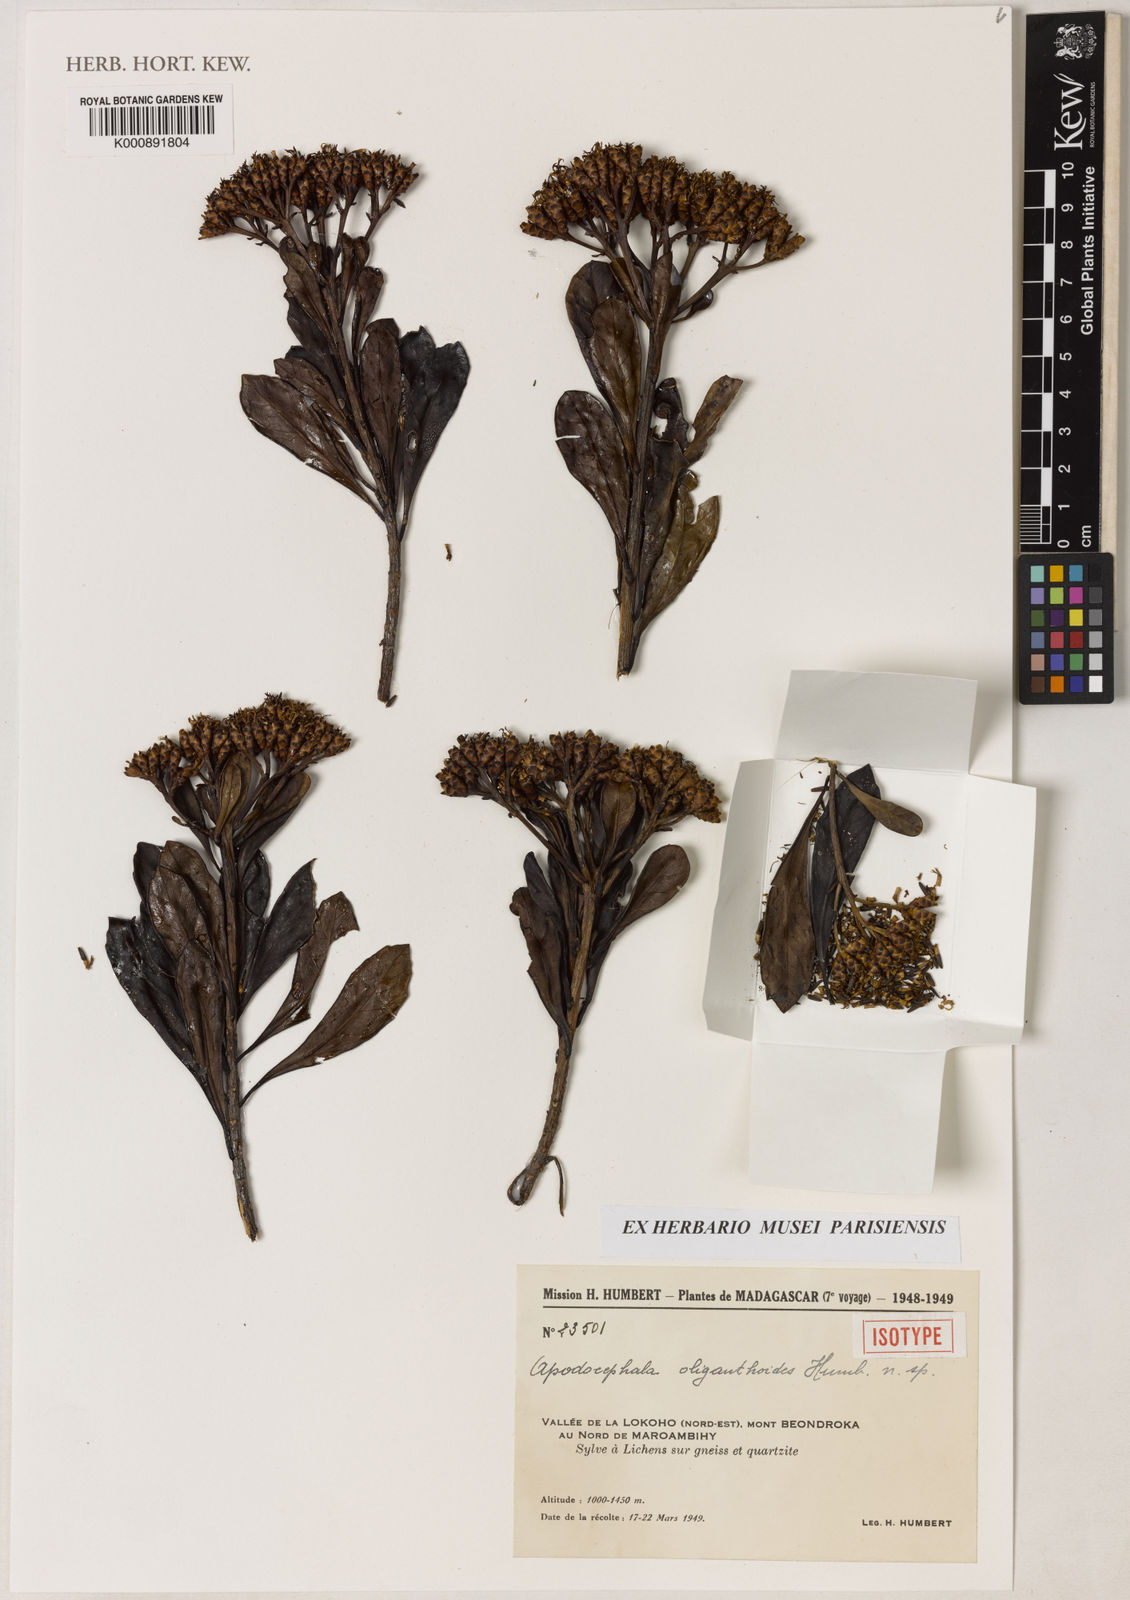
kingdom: Plantae
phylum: Tracheophyta
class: Magnoliopsida
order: Asterales
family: Asteraceae
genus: Apodocephala
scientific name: Apodocephala oliganthoides
